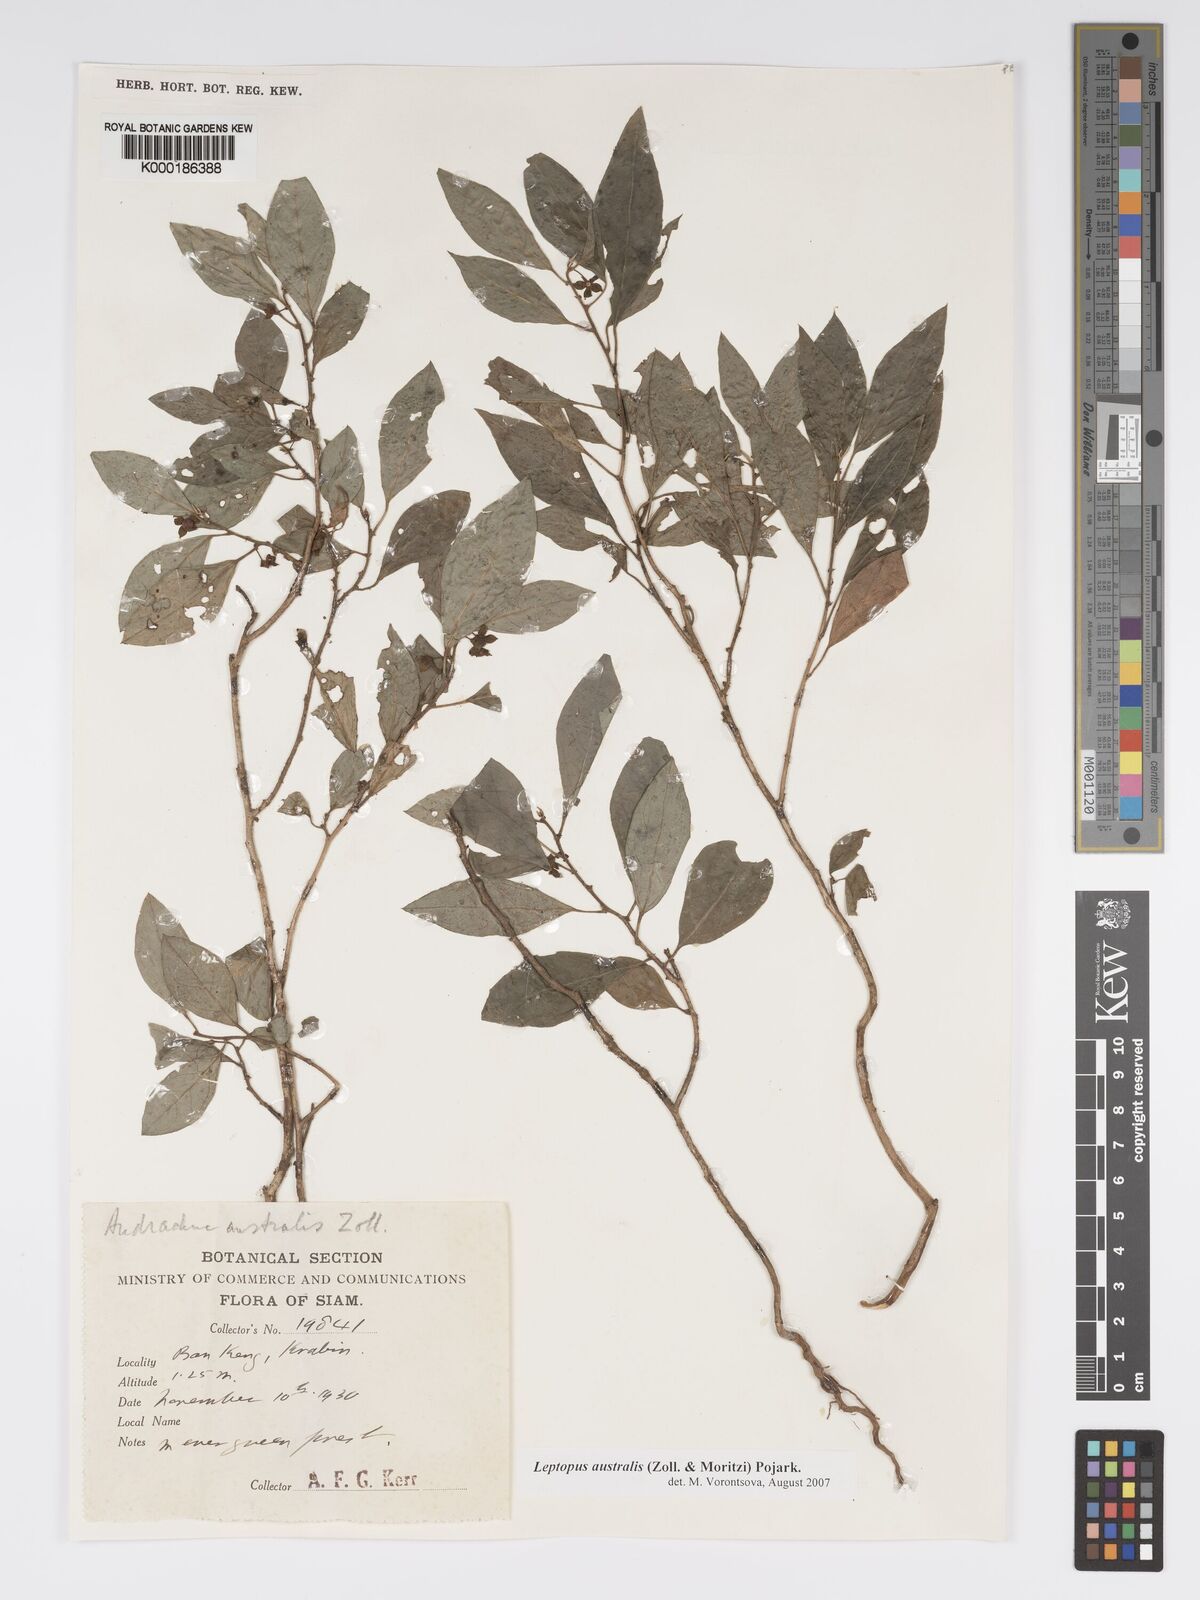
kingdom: Plantae
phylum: Tracheophyta
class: Magnoliopsida
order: Malpighiales
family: Phyllanthaceae
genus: Andrachne
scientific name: Andrachne
